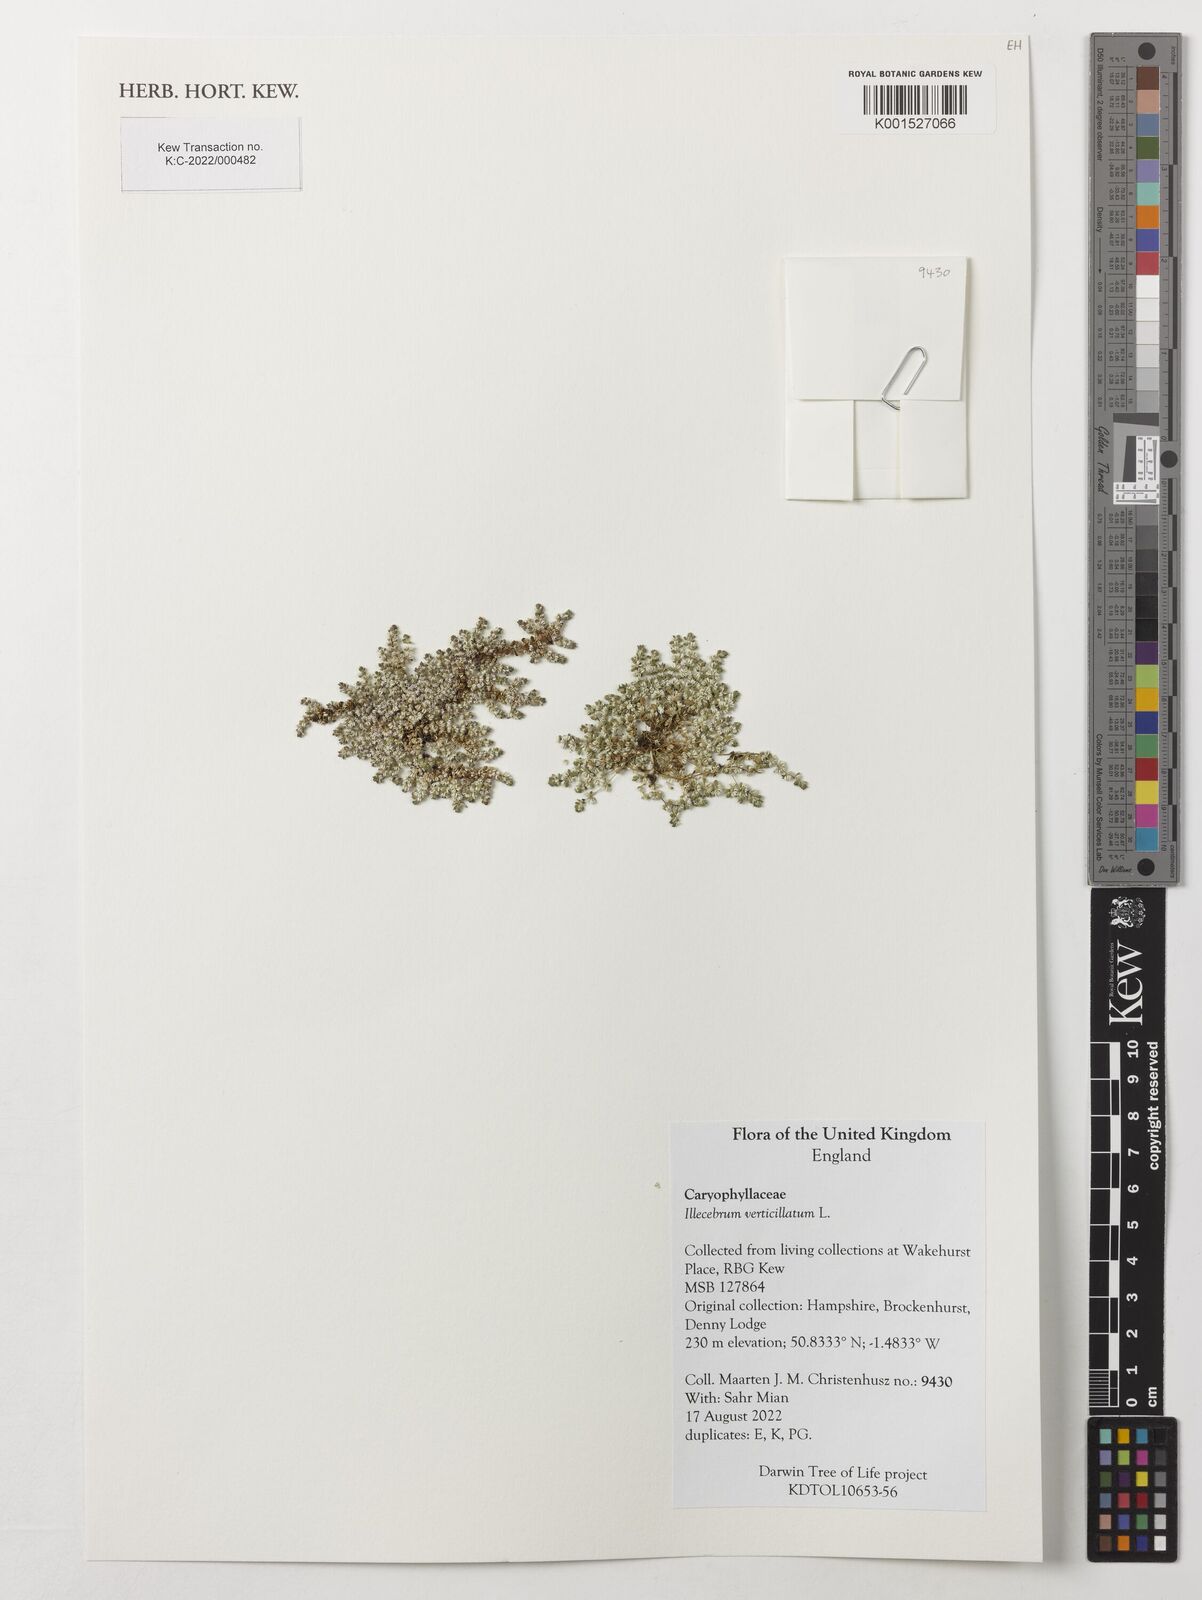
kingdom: Plantae
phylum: Tracheophyta
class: Magnoliopsida
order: Caryophyllales
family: Caryophyllaceae
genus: Illecebrum
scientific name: Illecebrum verticillatum
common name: Coral necklace
